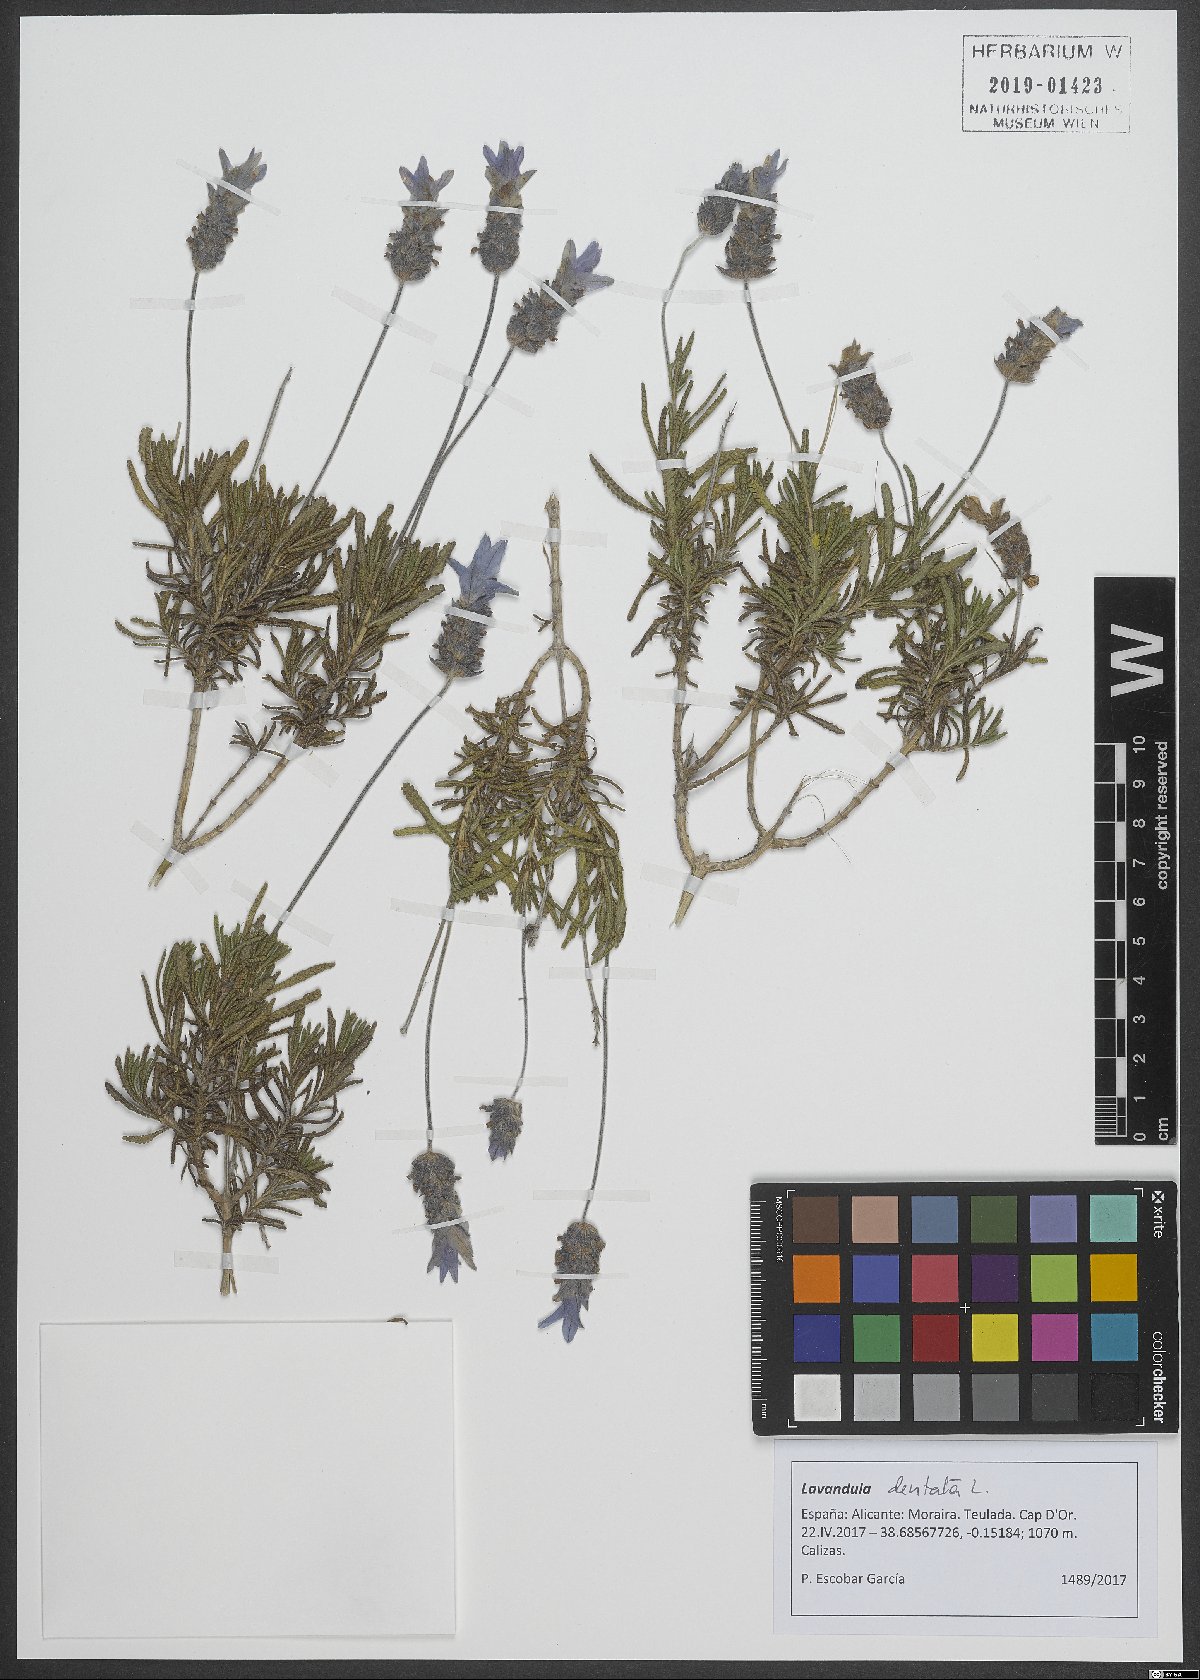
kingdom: Plantae
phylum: Tracheophyta
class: Magnoliopsida
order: Lamiales
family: Lamiaceae
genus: Lavandula
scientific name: Lavandula dentata
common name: French lavender
